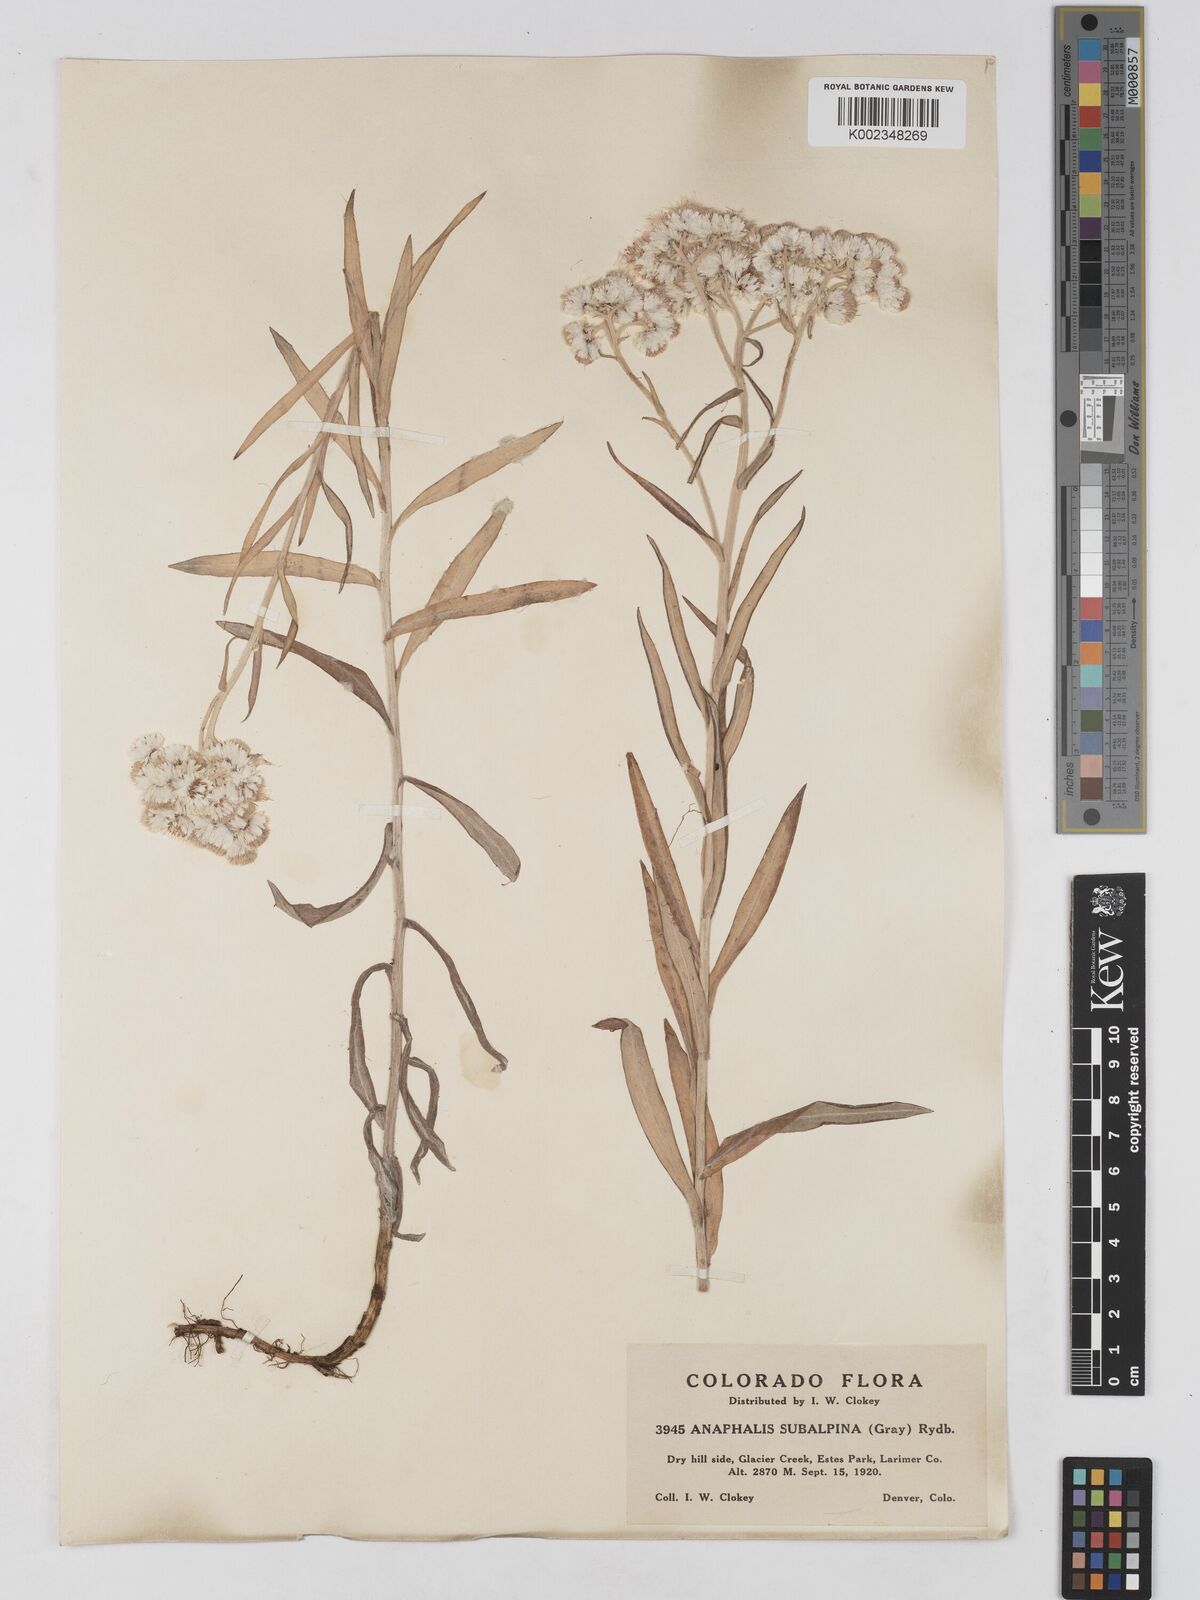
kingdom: Plantae
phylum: Tracheophyta
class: Magnoliopsida
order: Asterales
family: Asteraceae
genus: Anaphalis
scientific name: Anaphalis margaritacea
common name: Pearly everlasting
